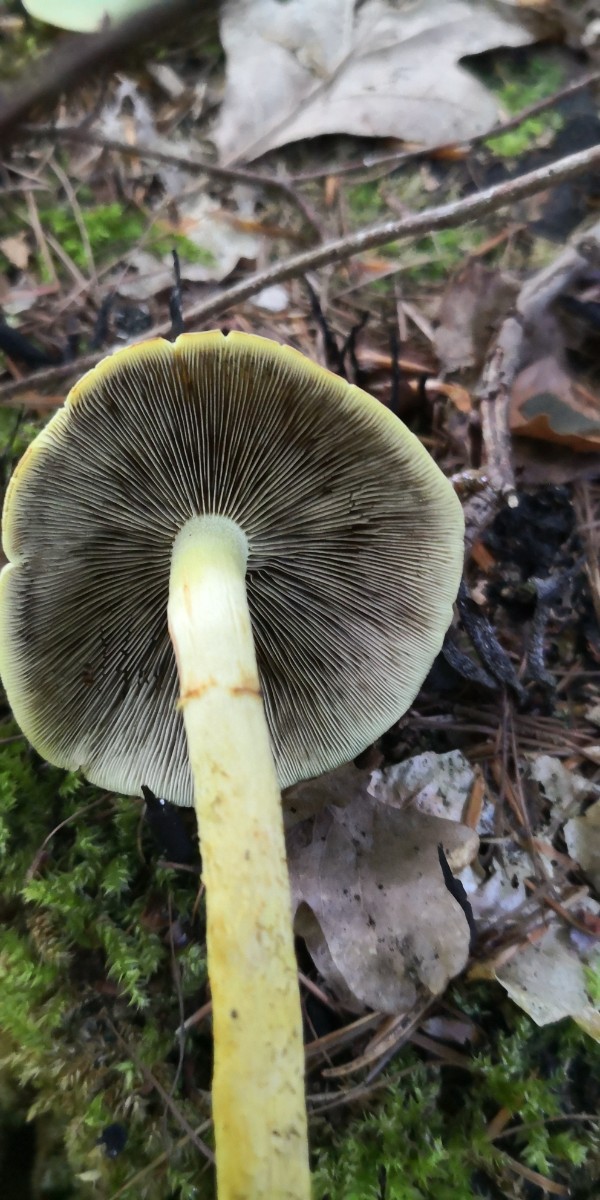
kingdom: Fungi
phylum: Basidiomycota
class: Agaricomycetes
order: Agaricales
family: Strophariaceae
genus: Hypholoma
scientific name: Hypholoma fasciculare
